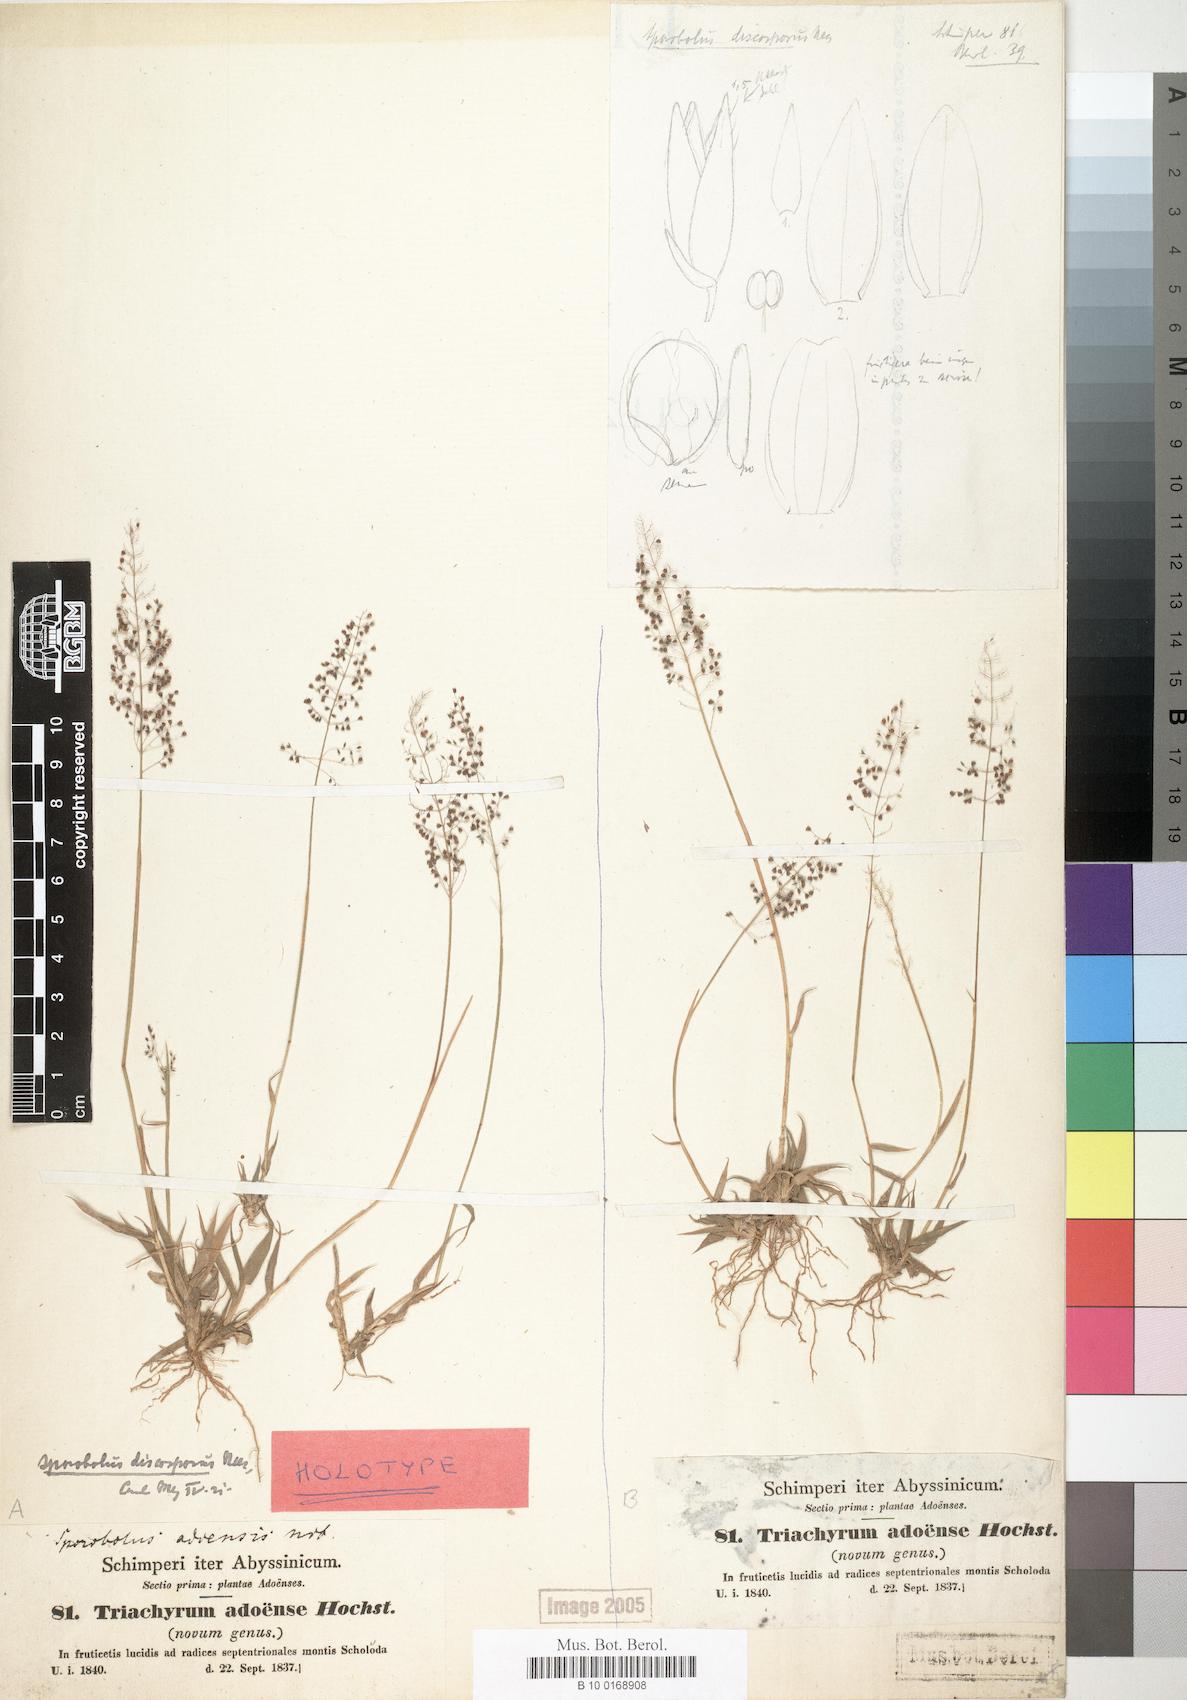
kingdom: Plantae
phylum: Tracheophyta
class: Liliopsida
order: Poales
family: Poaceae
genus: Sporobolus
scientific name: Sporobolus Triachyrum adoense
